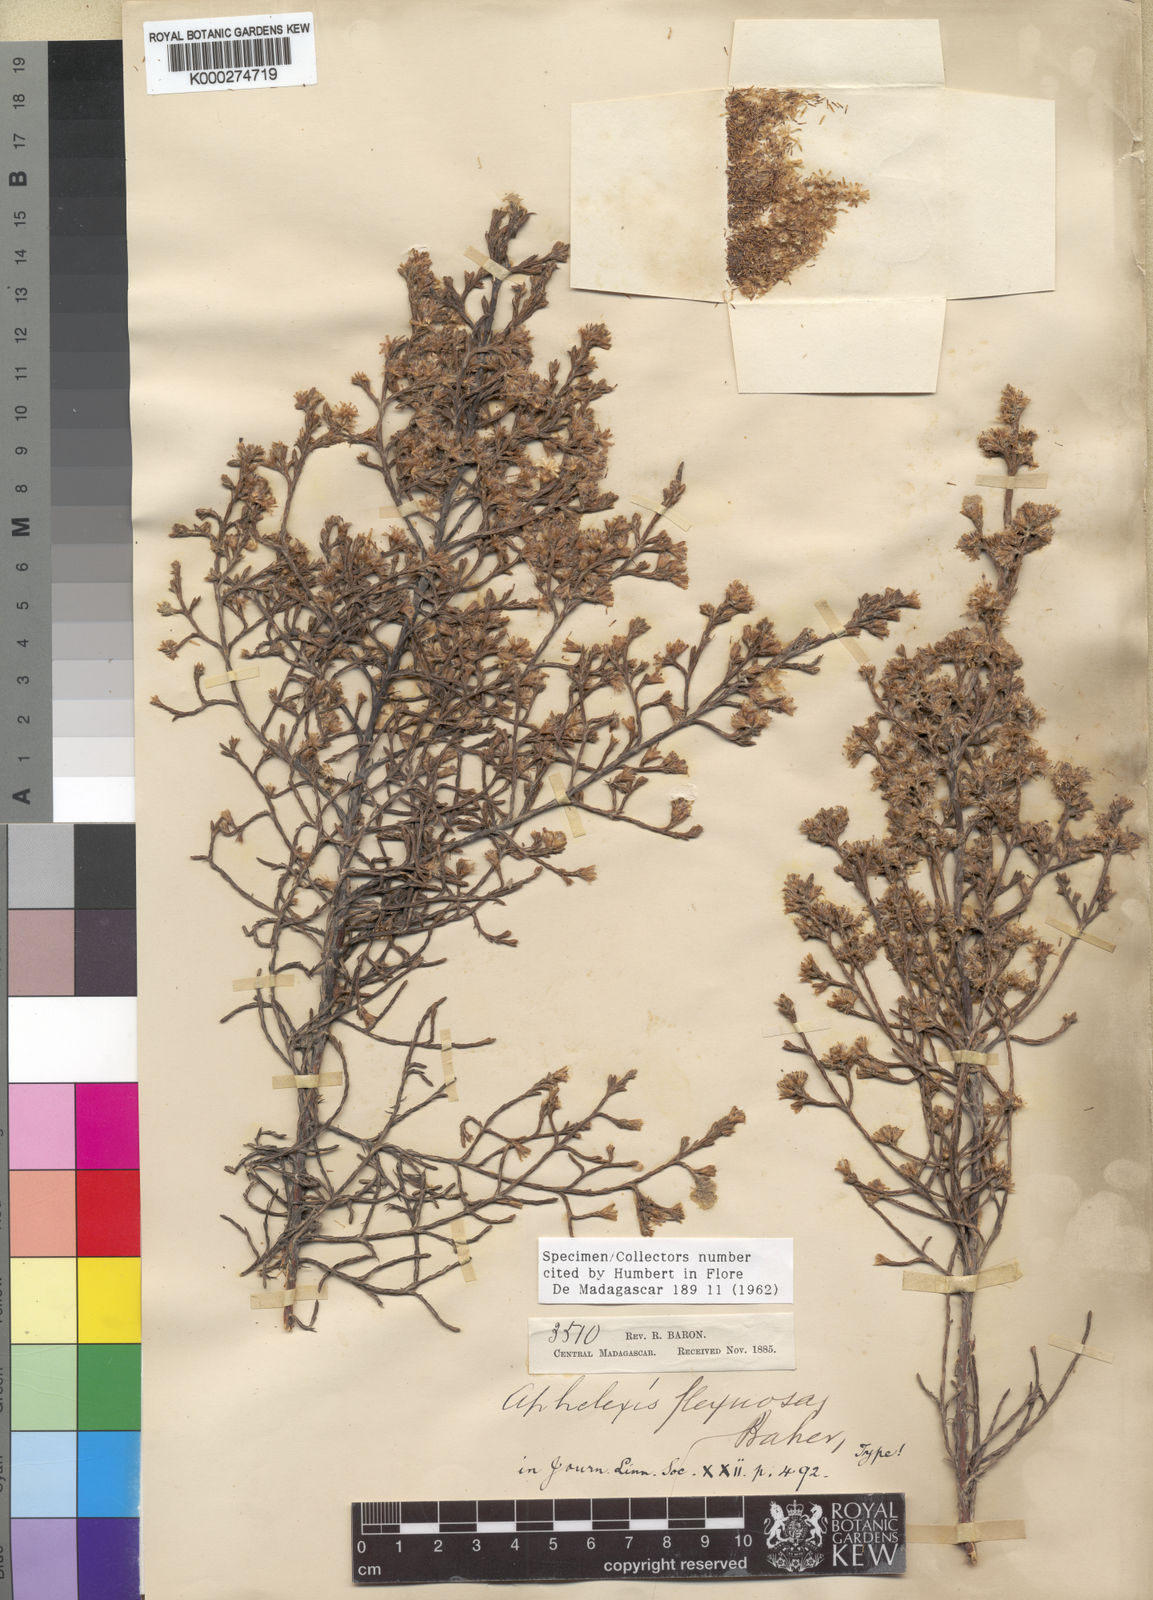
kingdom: Plantae
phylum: Tracheophyta
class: Magnoliopsida
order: Asterales
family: Asteraceae
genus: Aphelexis
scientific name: Aphelexis hypnoides
